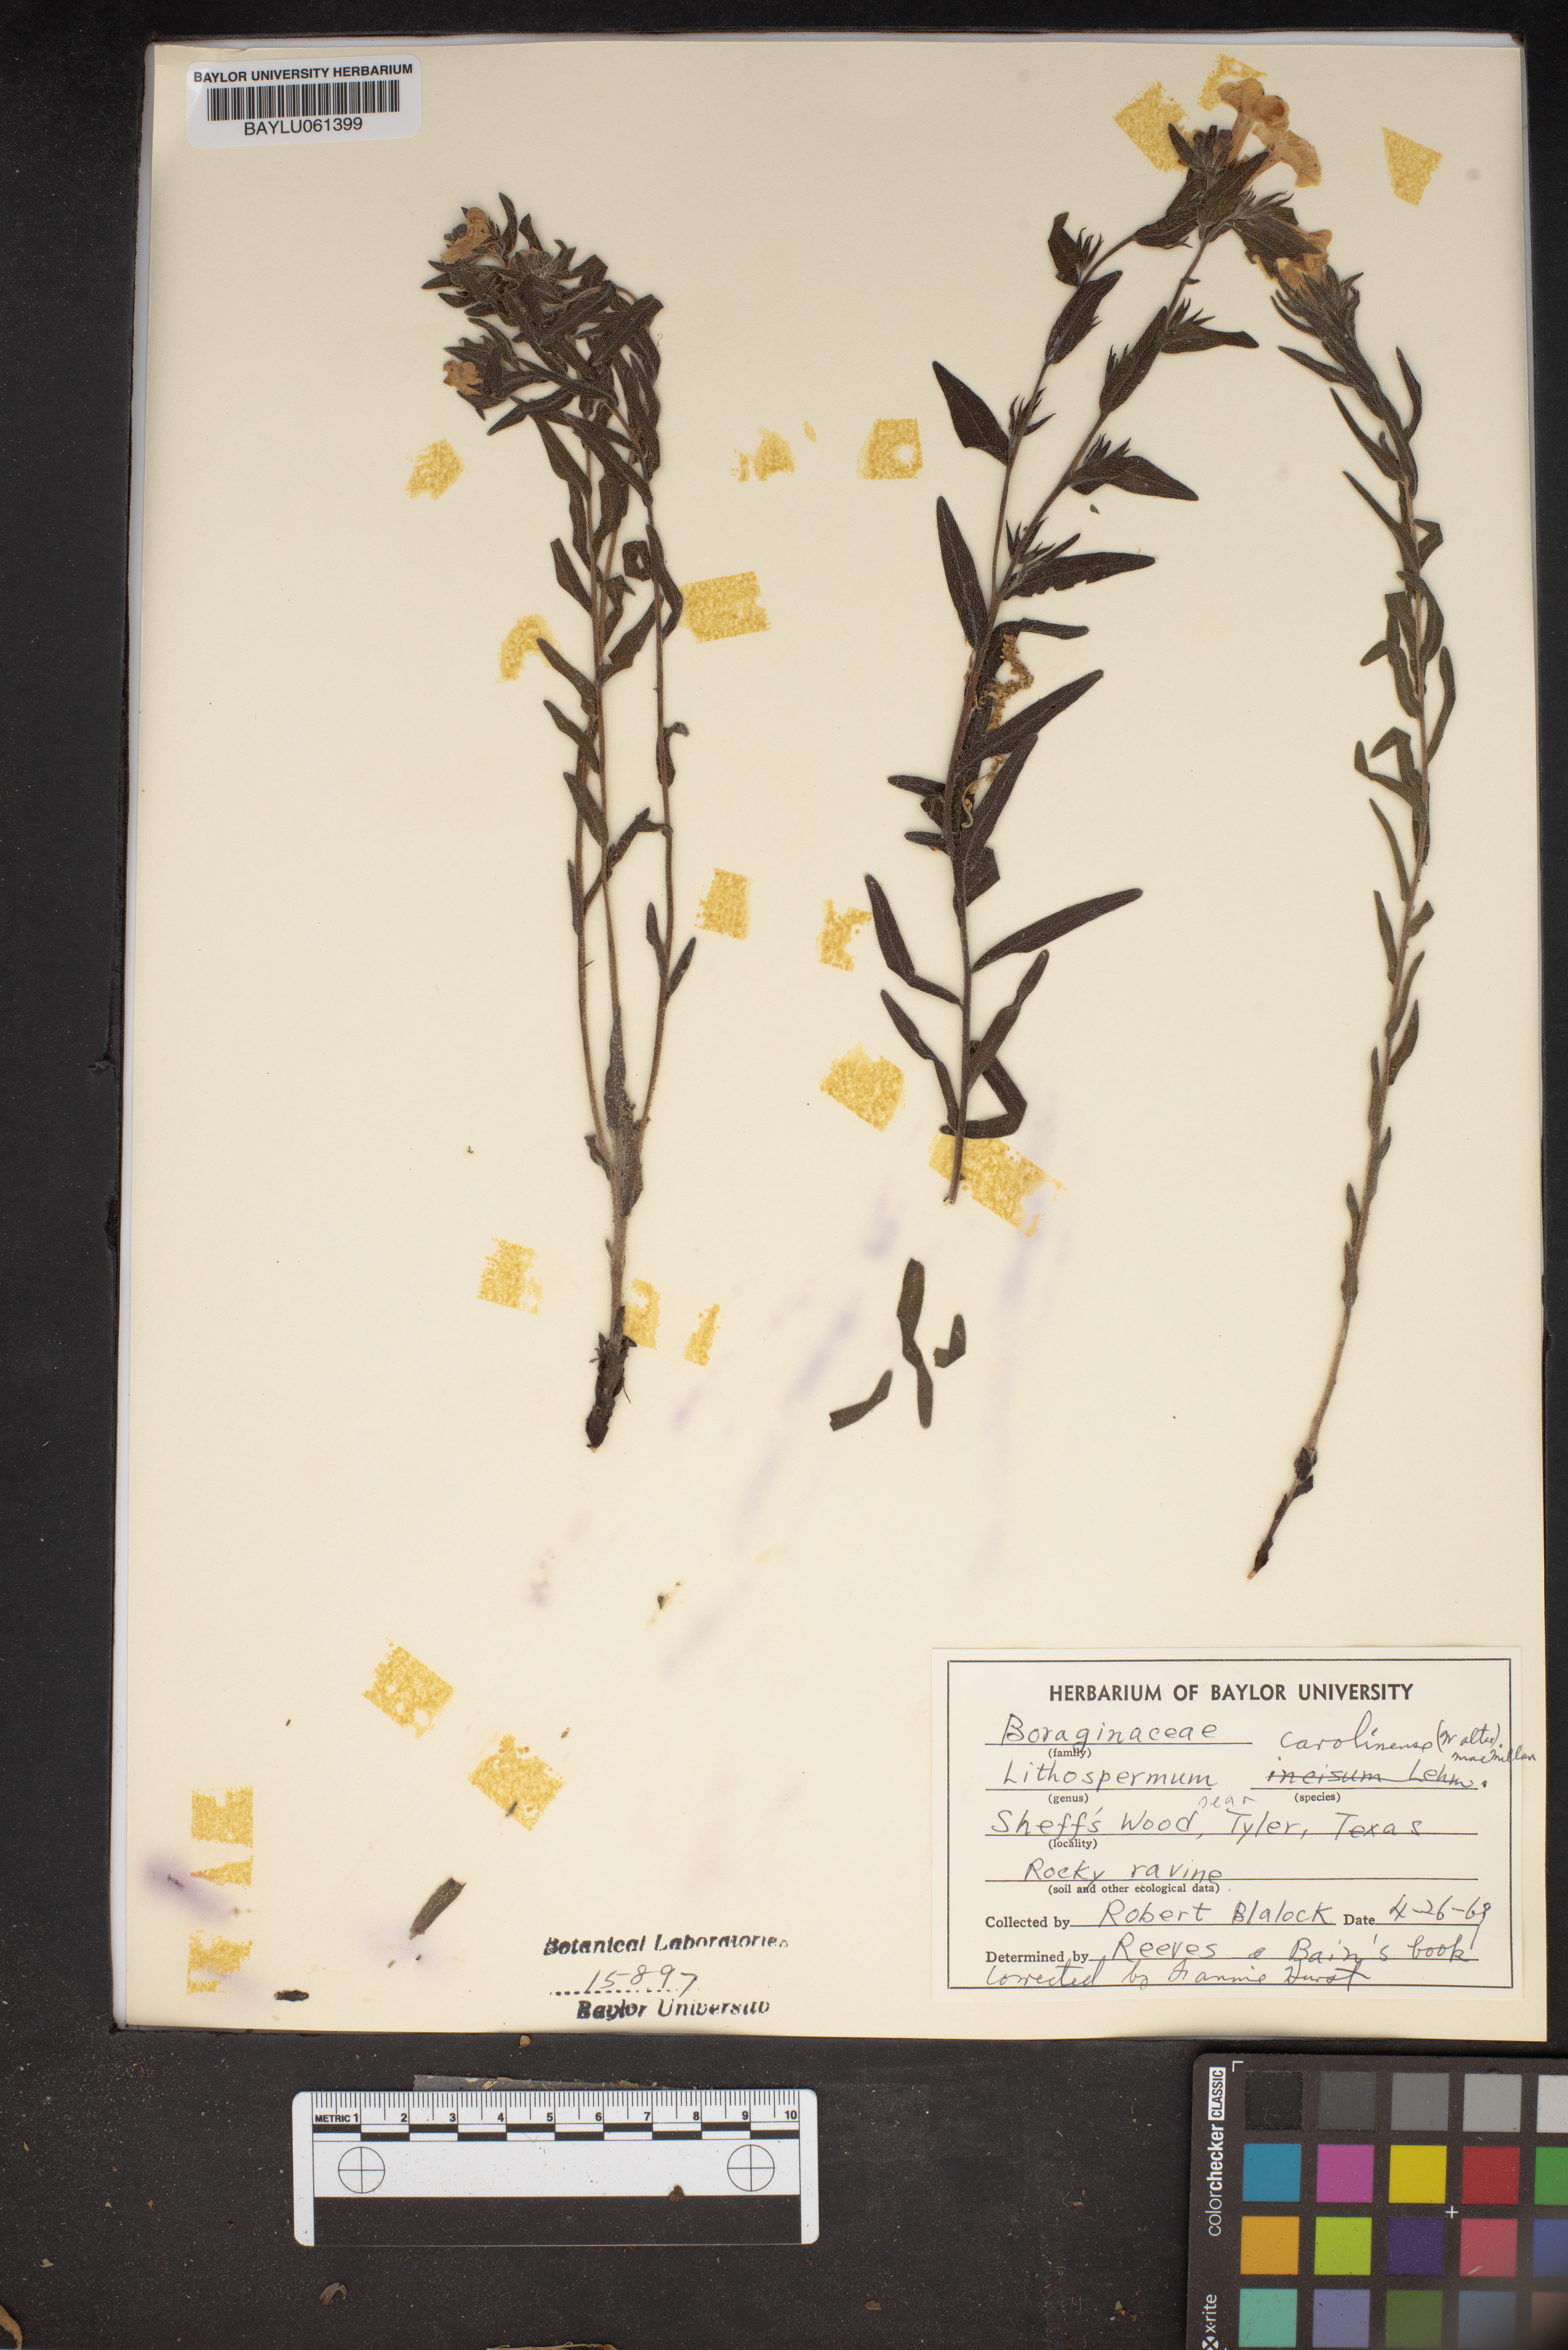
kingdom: Plantae
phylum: Tracheophyta
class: Magnoliopsida
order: Boraginales
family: Boraginaceae
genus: Lithospermum
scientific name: Lithospermum caroliniense
